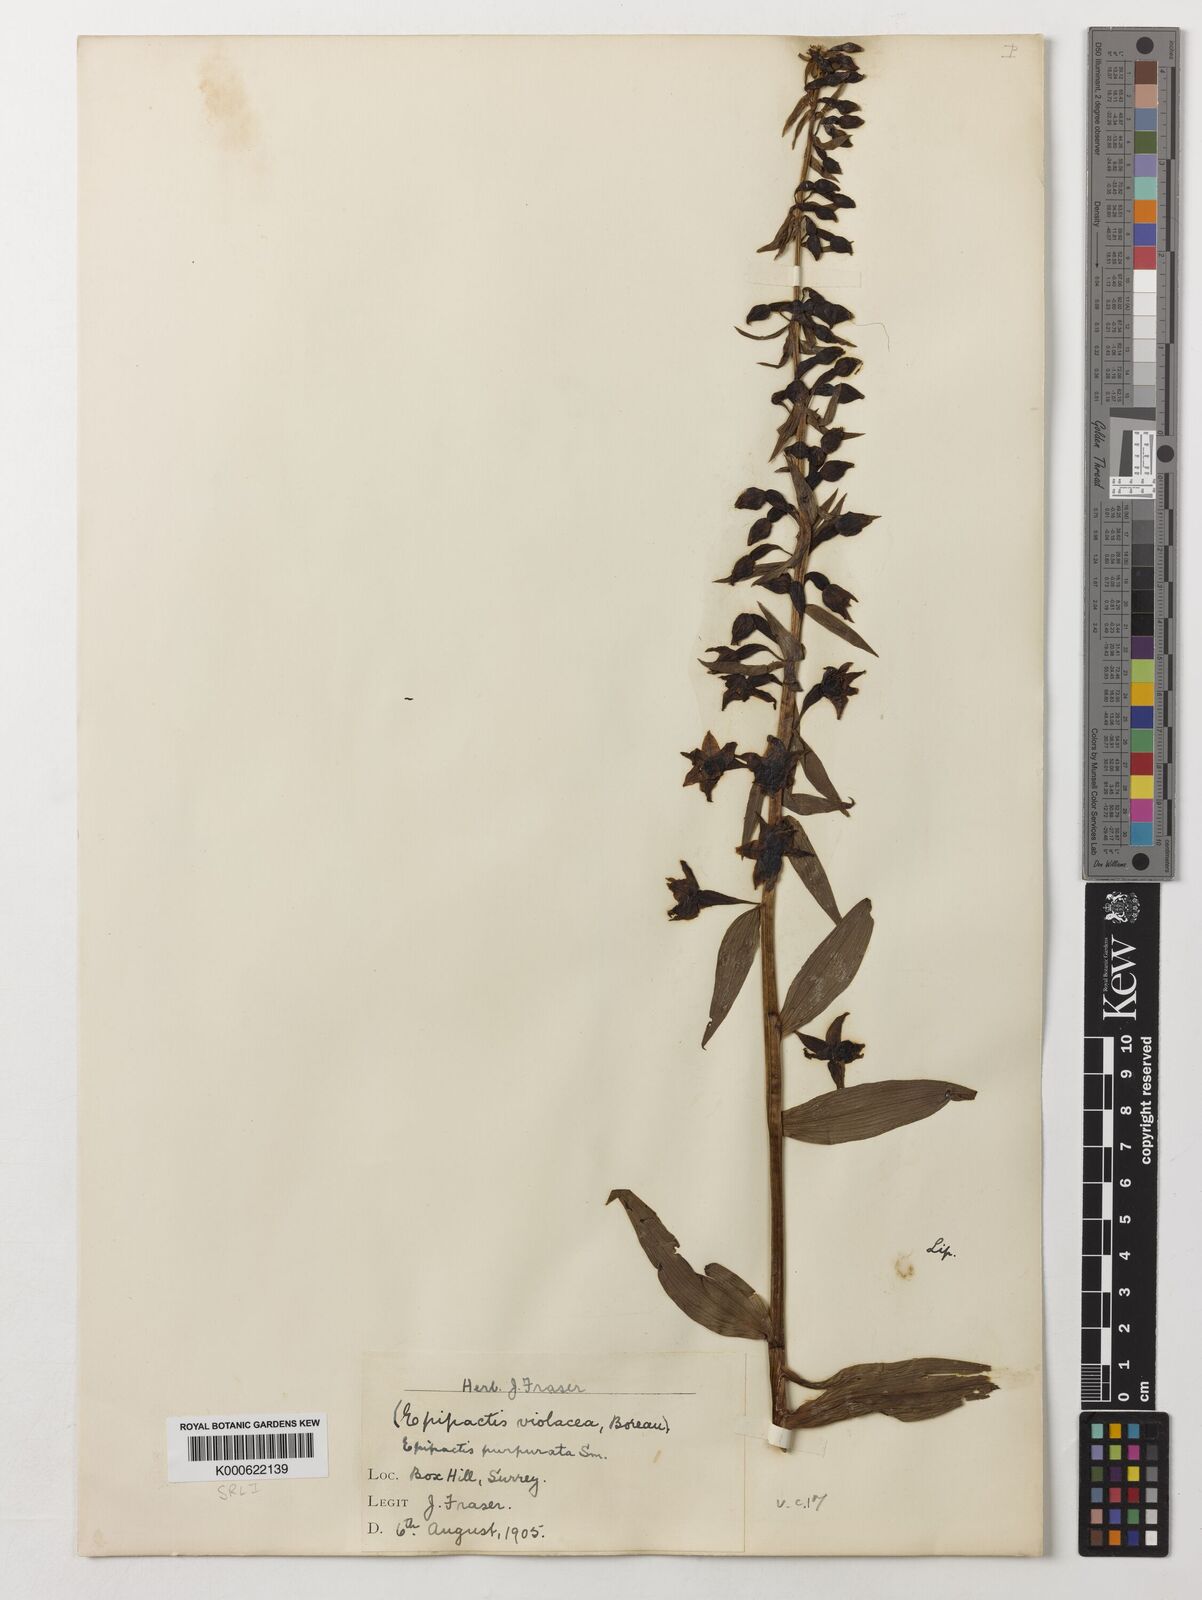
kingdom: Plantae
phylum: Tracheophyta
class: Liliopsida
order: Asparagales
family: Orchidaceae
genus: Epipactis
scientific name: Epipactis purpurata
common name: Violet helleborine
